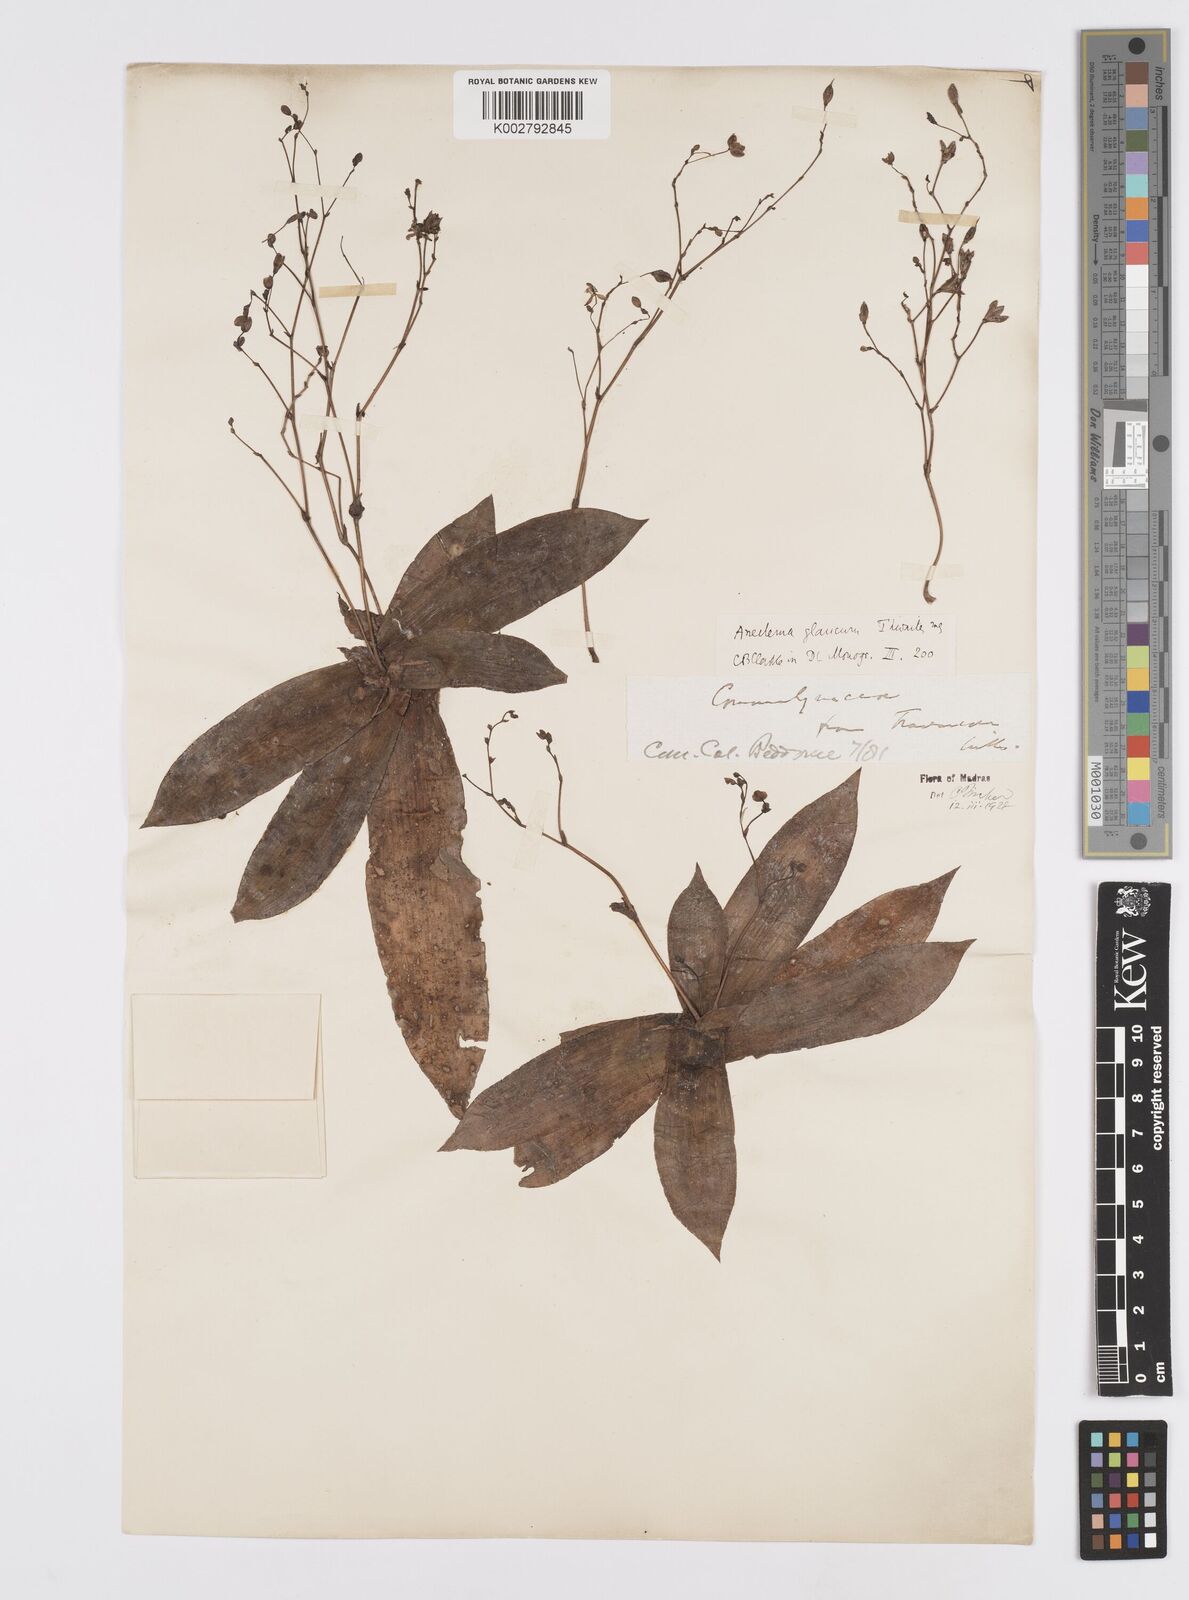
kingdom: Plantae
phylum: Tracheophyta
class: Liliopsida
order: Commelinales
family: Commelinaceae
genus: Murdannia
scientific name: Murdannia glauca
